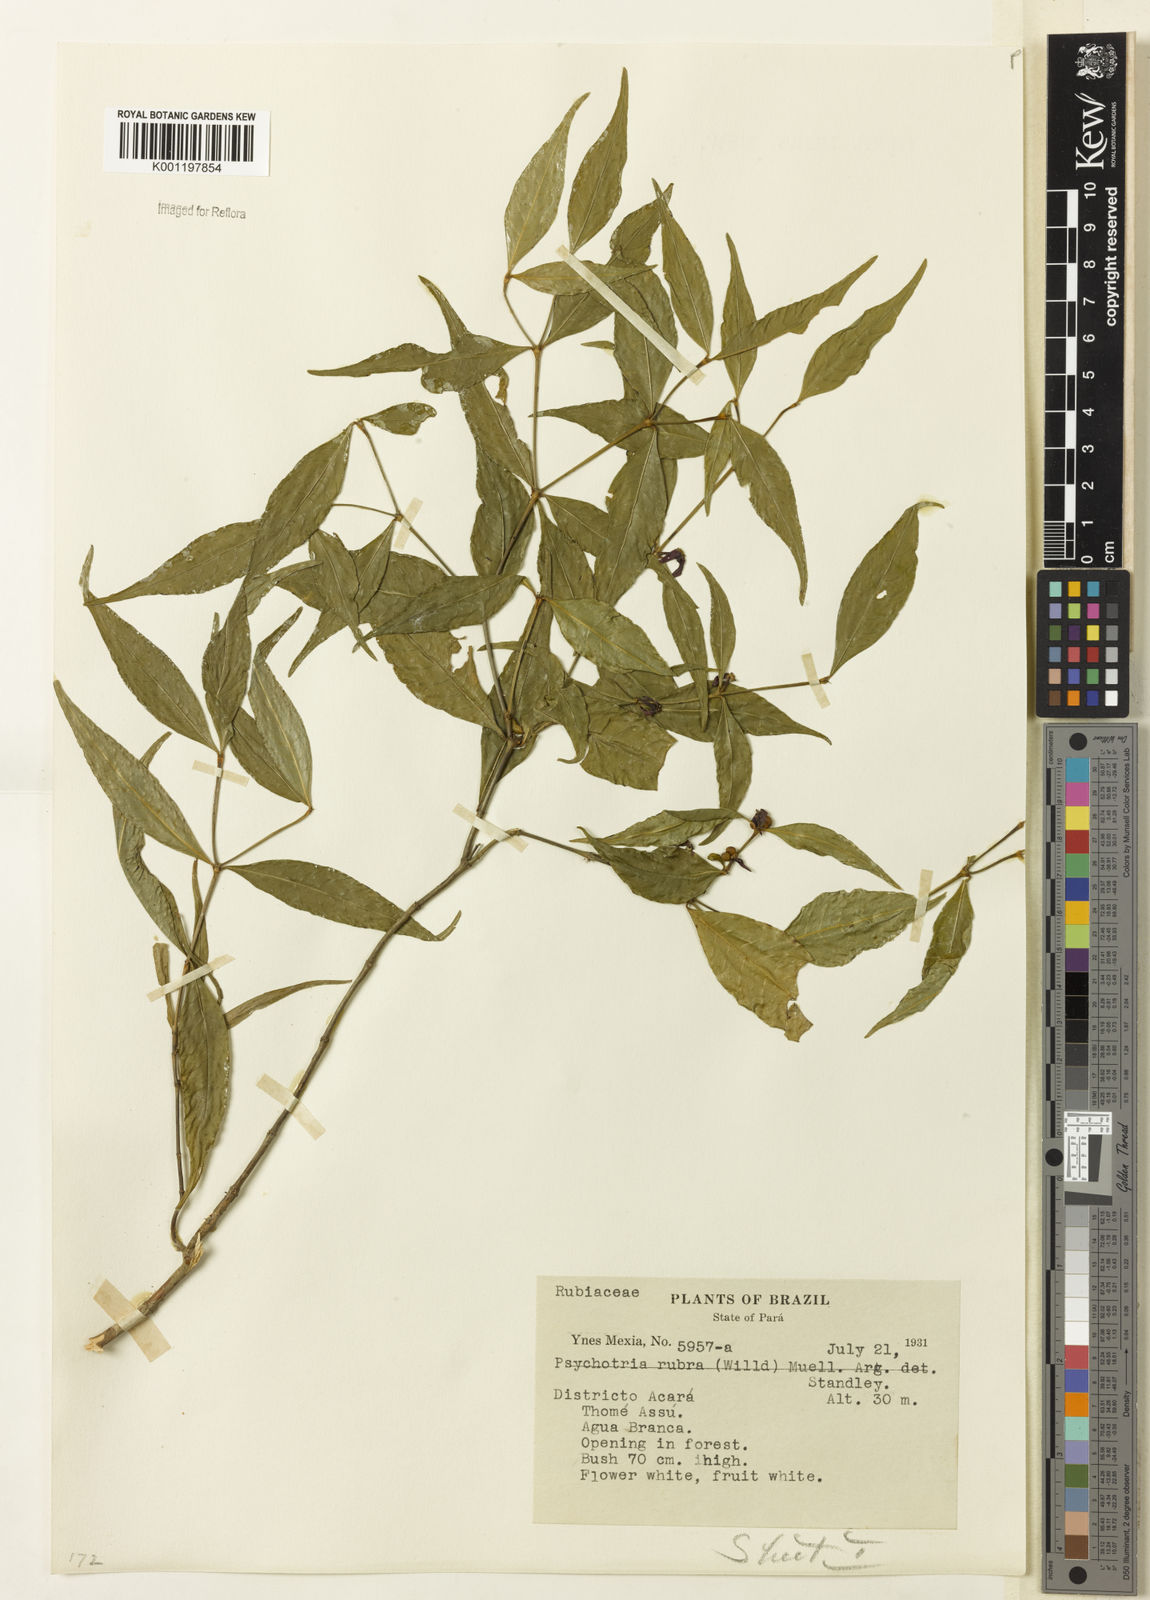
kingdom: Plantae
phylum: Tracheophyta
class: Magnoliopsida
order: Gentianales
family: Rubiaceae
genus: Psychotria
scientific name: Psychotria
